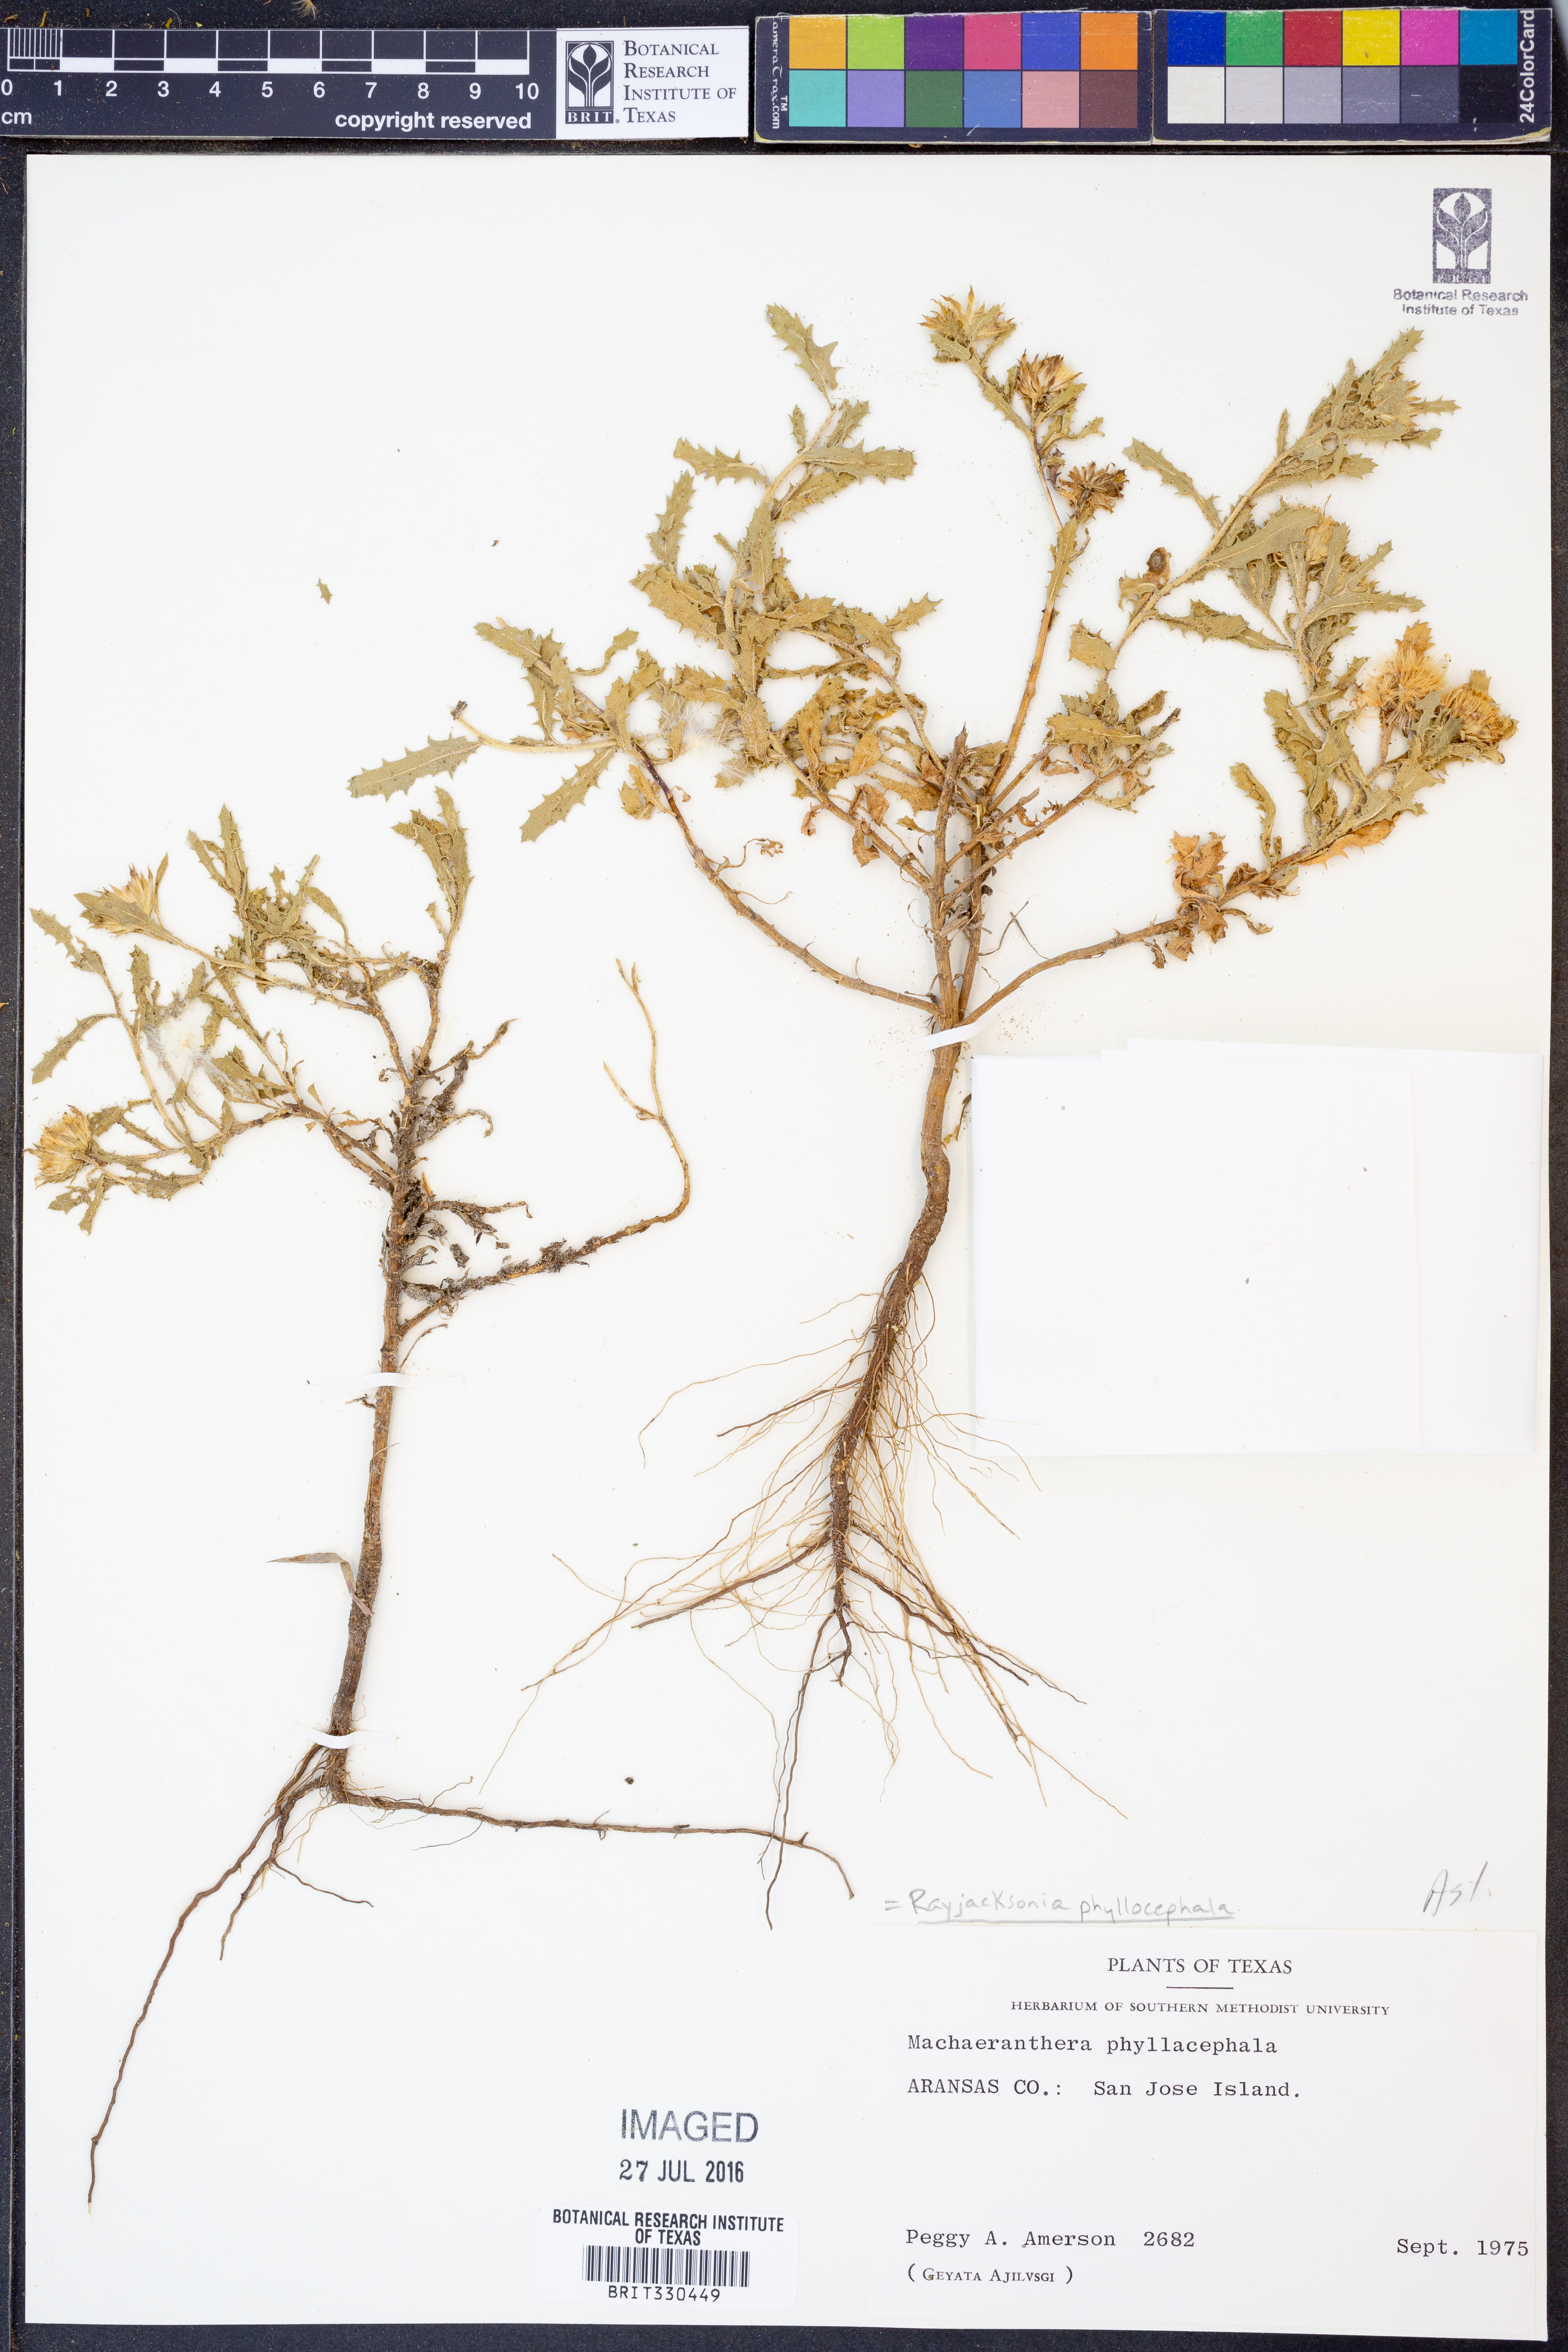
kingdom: Plantae
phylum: Tracheophyta
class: Magnoliopsida
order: Asterales
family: Asteraceae
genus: Rayjacksonia
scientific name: Rayjacksonia phyllocephala
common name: Gulf coast camphor daisy
